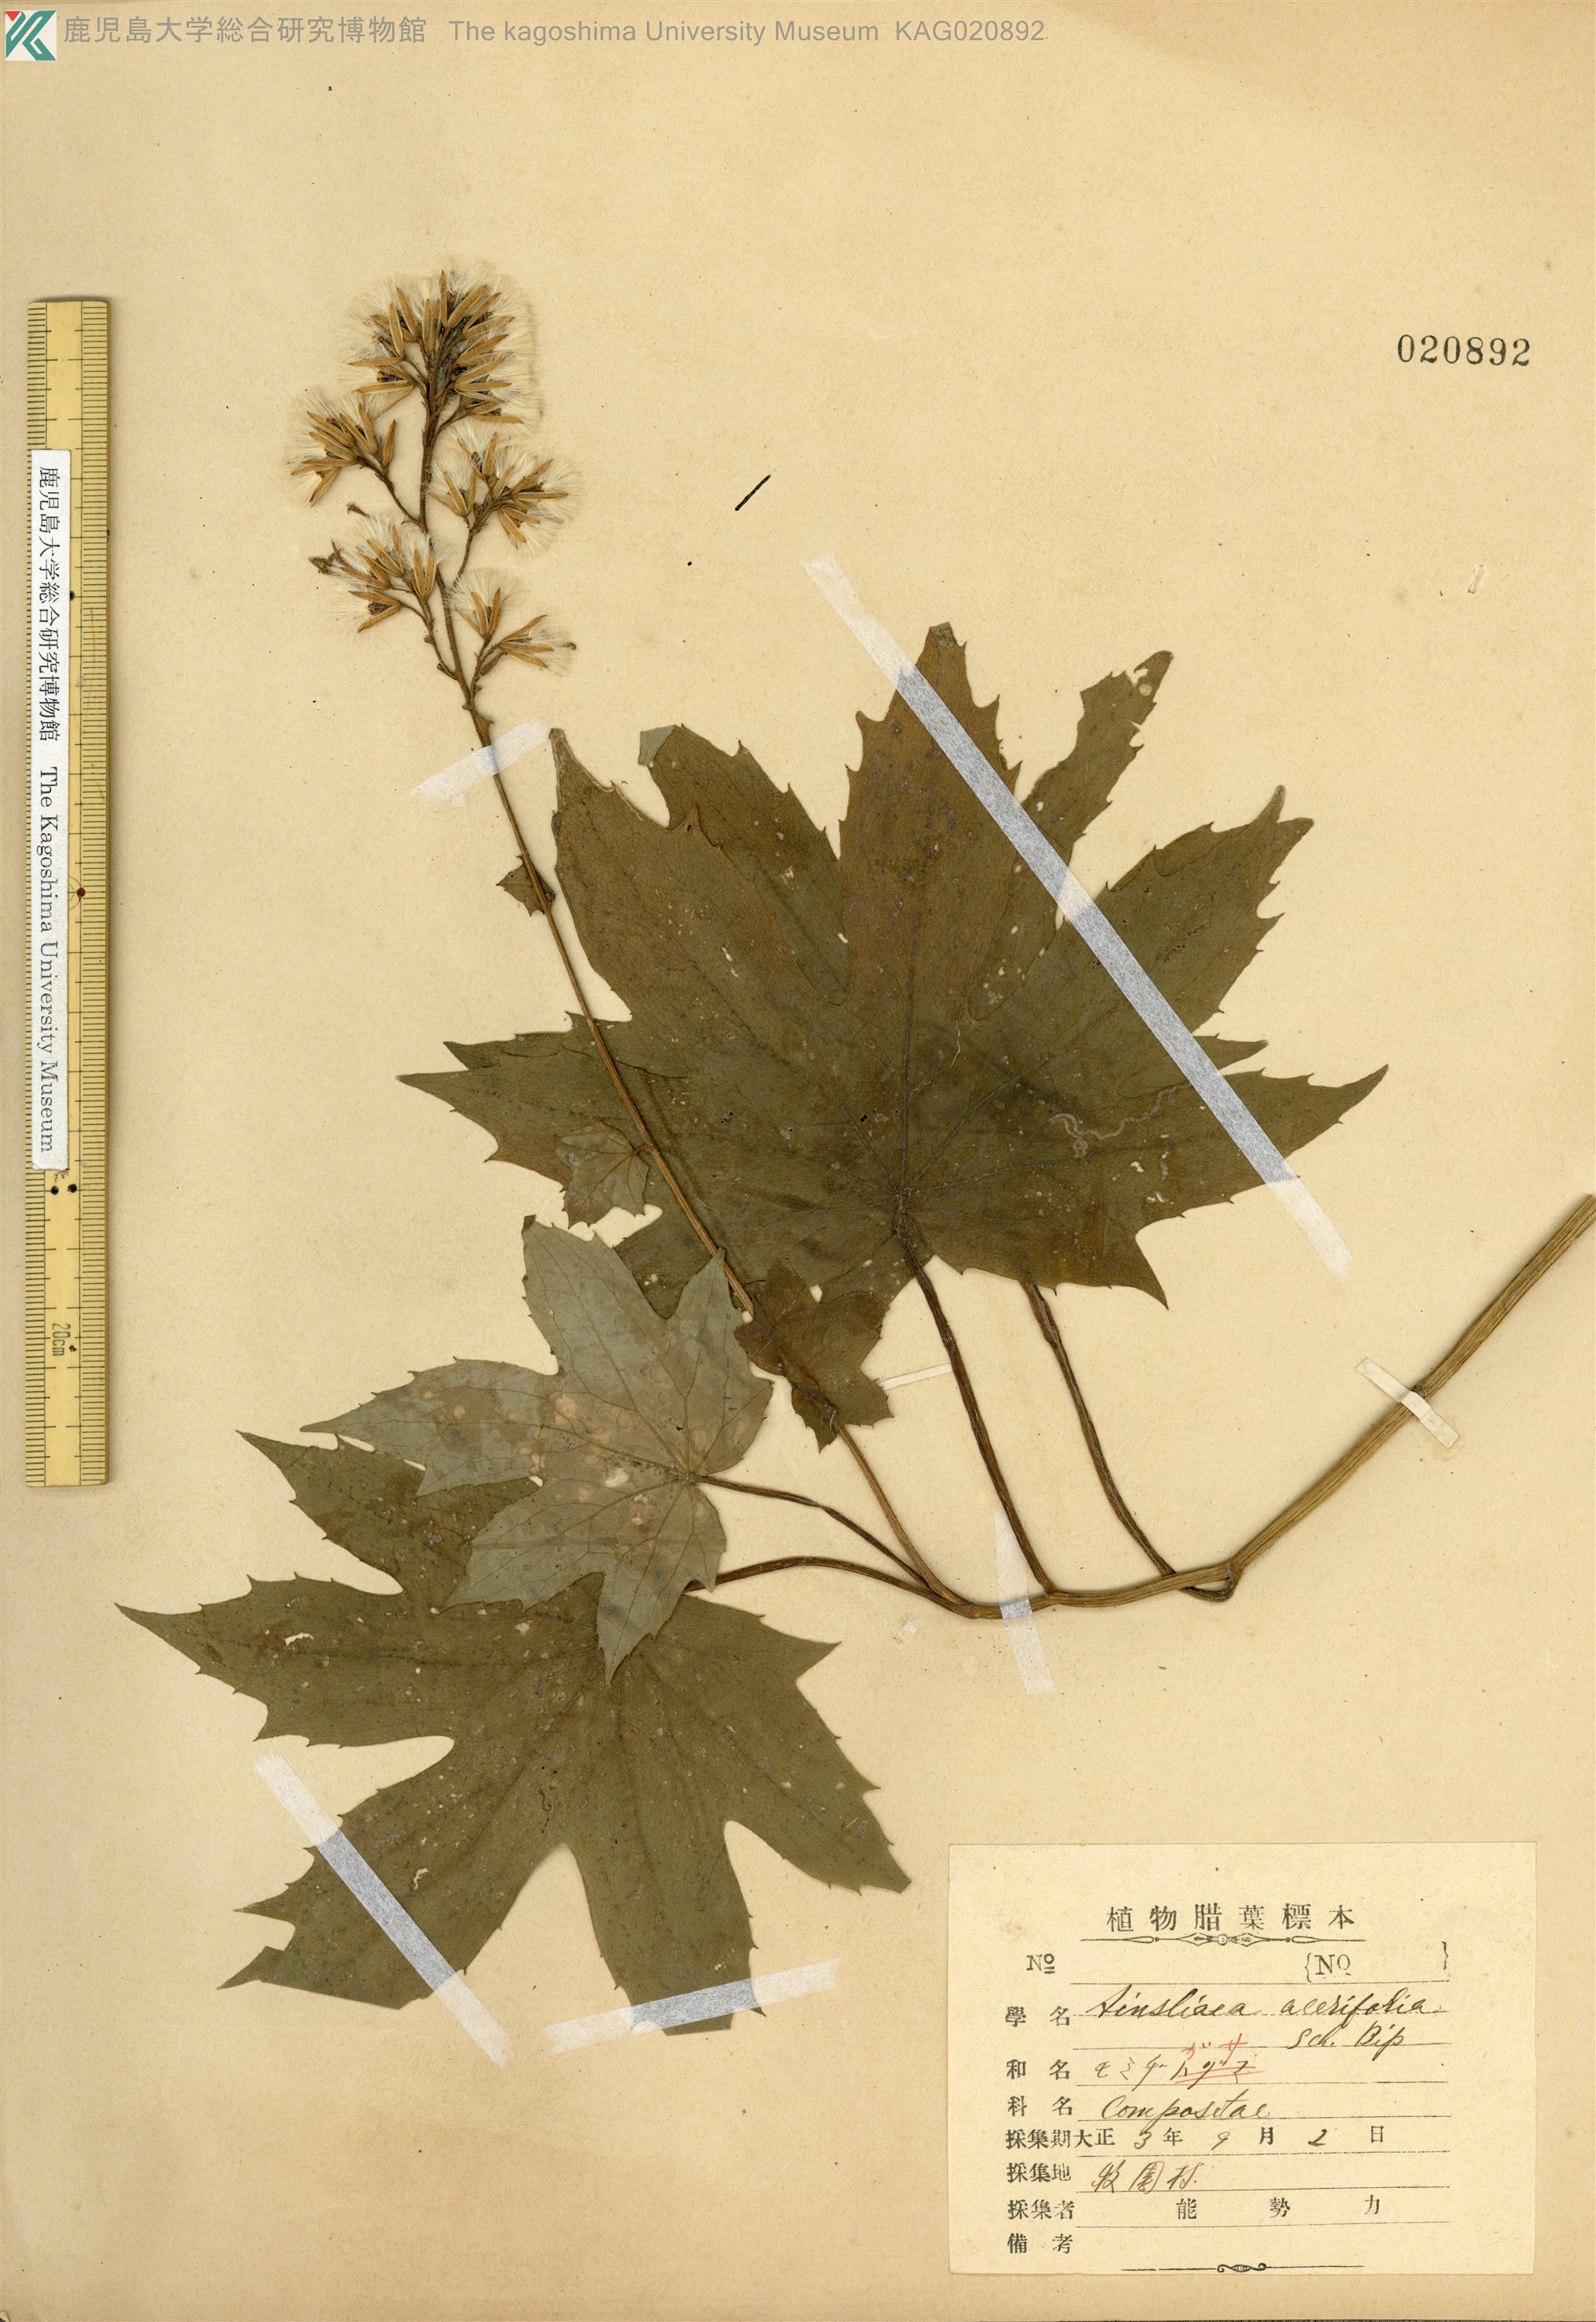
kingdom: Plantae
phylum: Tracheophyta
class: Magnoliopsida
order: Asterales
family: Asteraceae
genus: Japonicalia
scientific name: Japonicalia delphiniifolia
